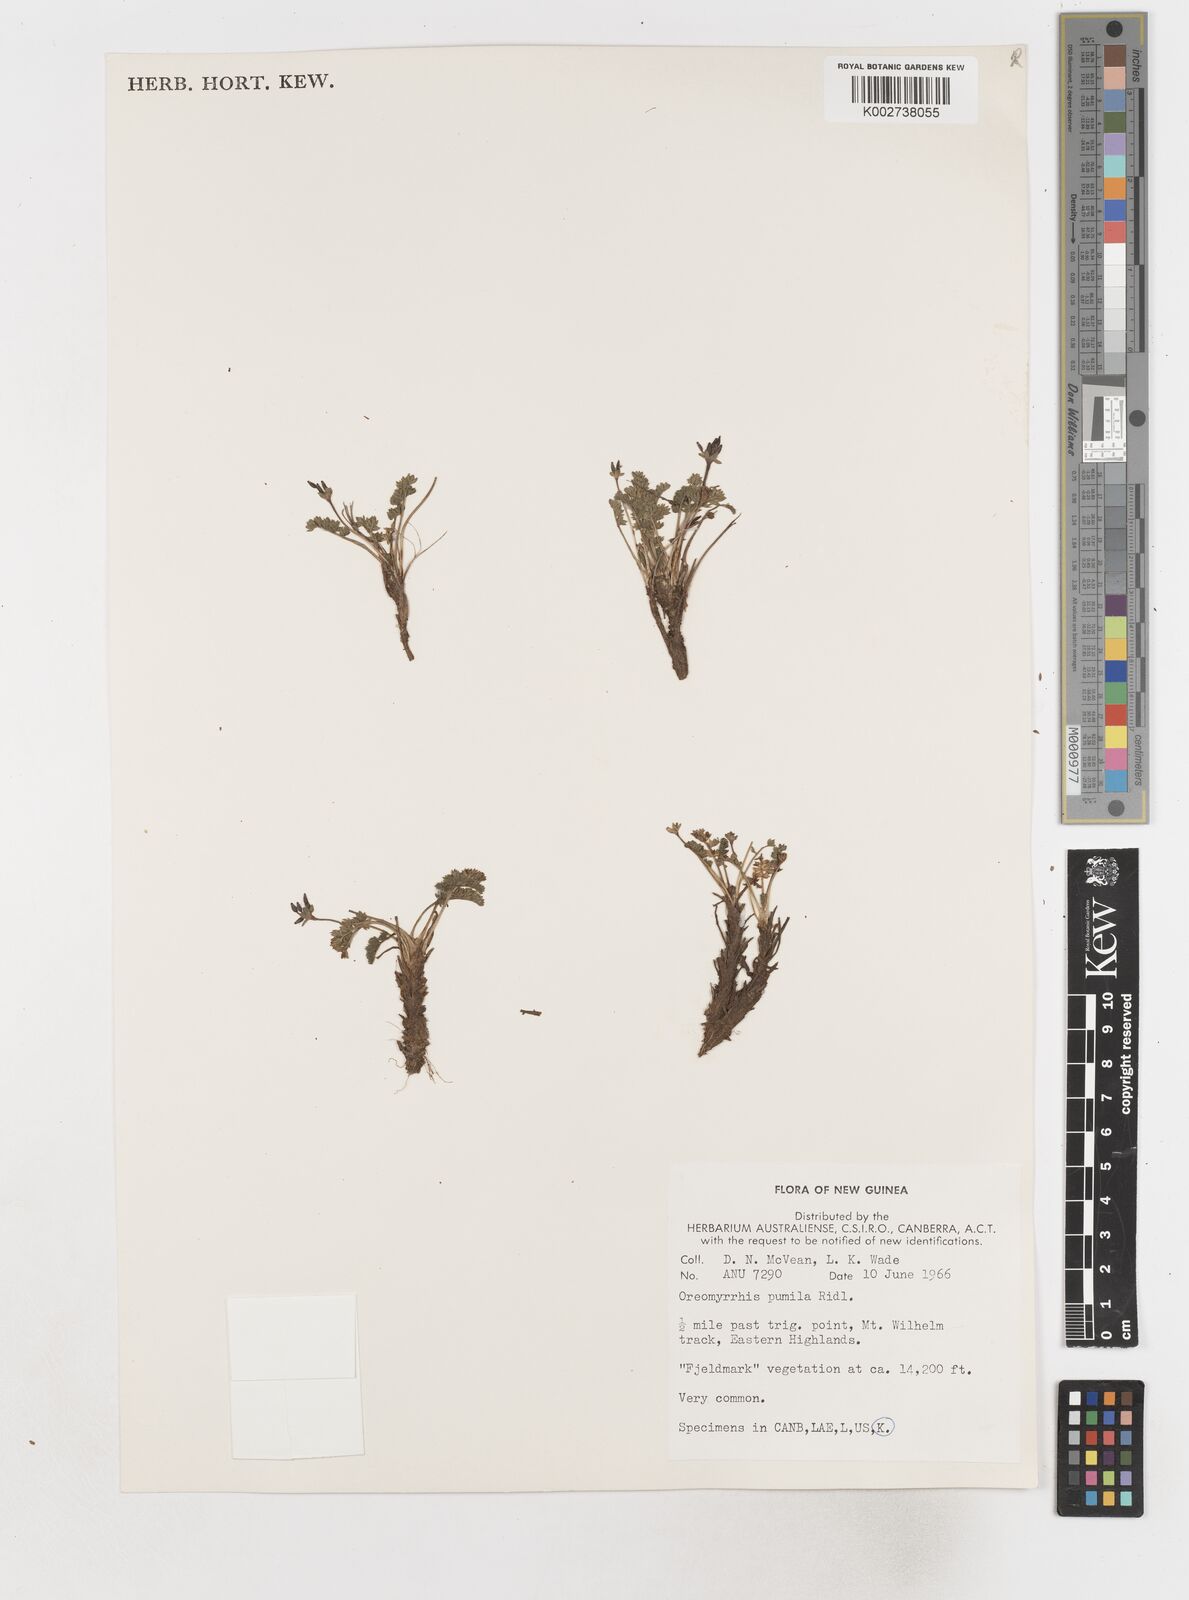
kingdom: Plantae
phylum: Tracheophyta
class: Magnoliopsida
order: Apiales
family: Apiaceae
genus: Chaerophyllum
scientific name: Chaerophyllum pumilum
